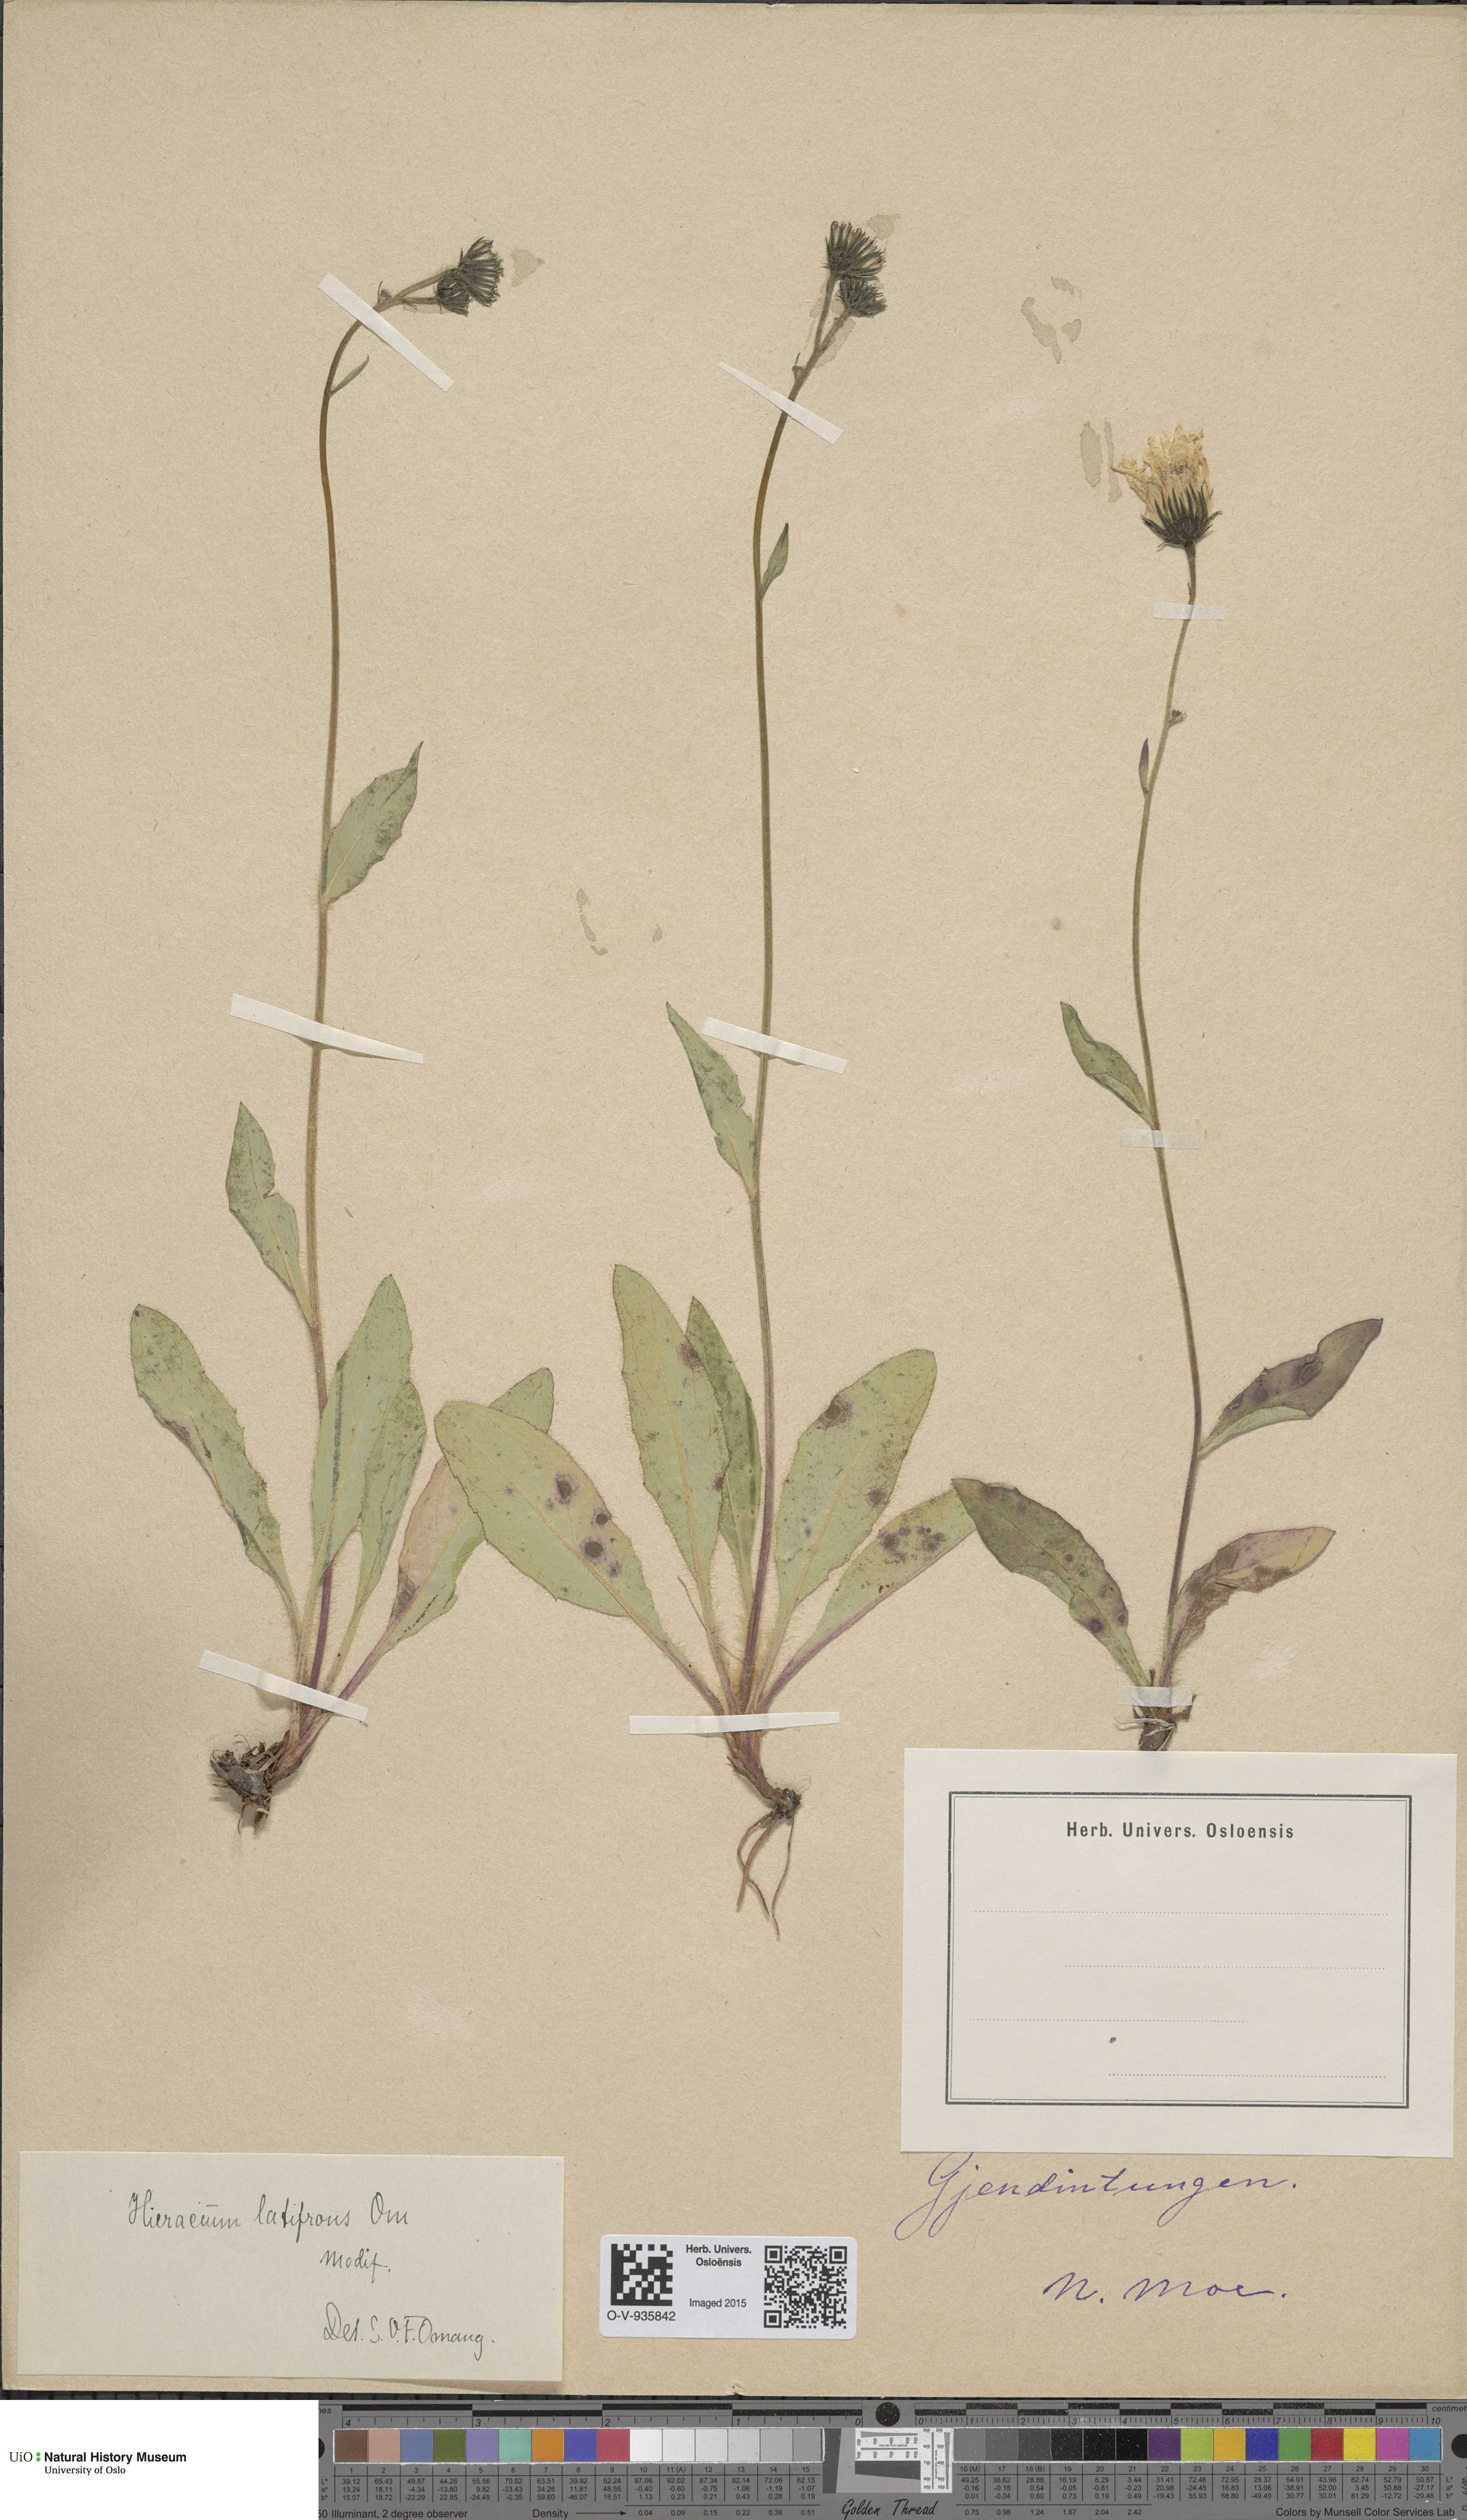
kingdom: Plantae
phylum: Tracheophyta
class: Magnoliopsida
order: Asterales
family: Asteraceae
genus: Hieracium
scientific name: Hieracium saxifragum
